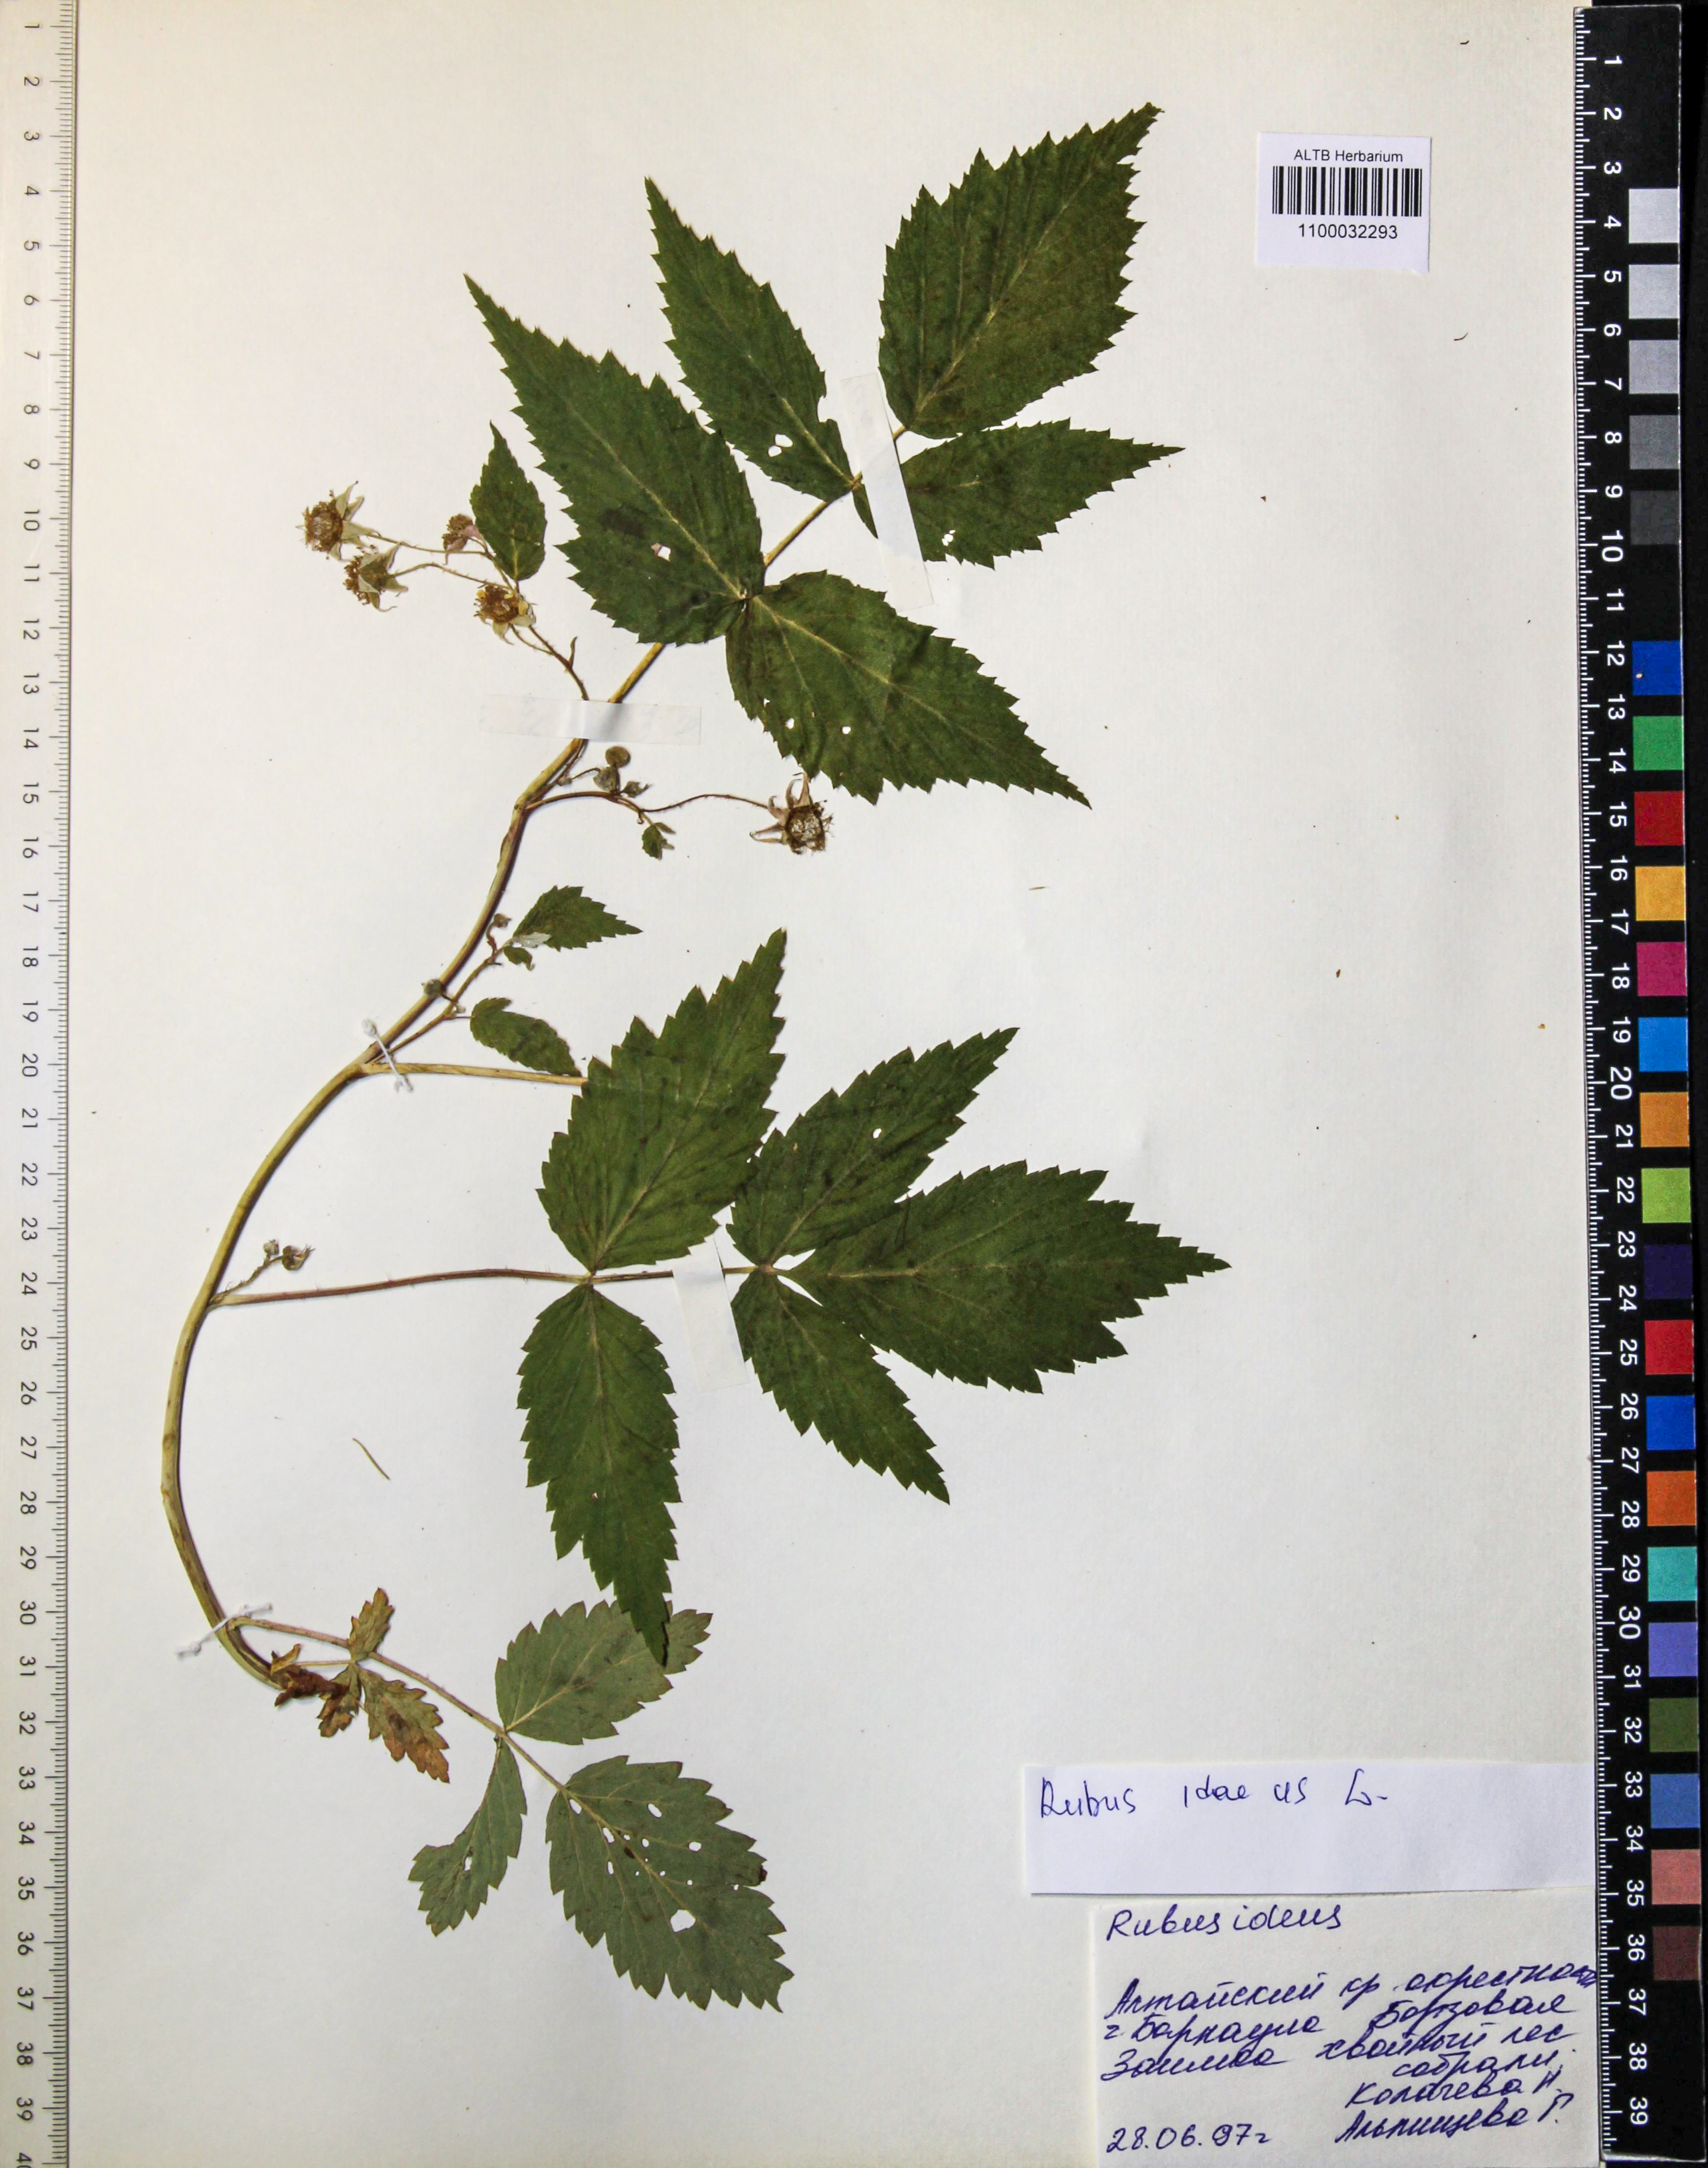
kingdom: Plantae
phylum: Tracheophyta
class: Magnoliopsida
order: Rosales
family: Rosaceae
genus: Rubus
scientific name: Rubus idaeus
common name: Raspberry
